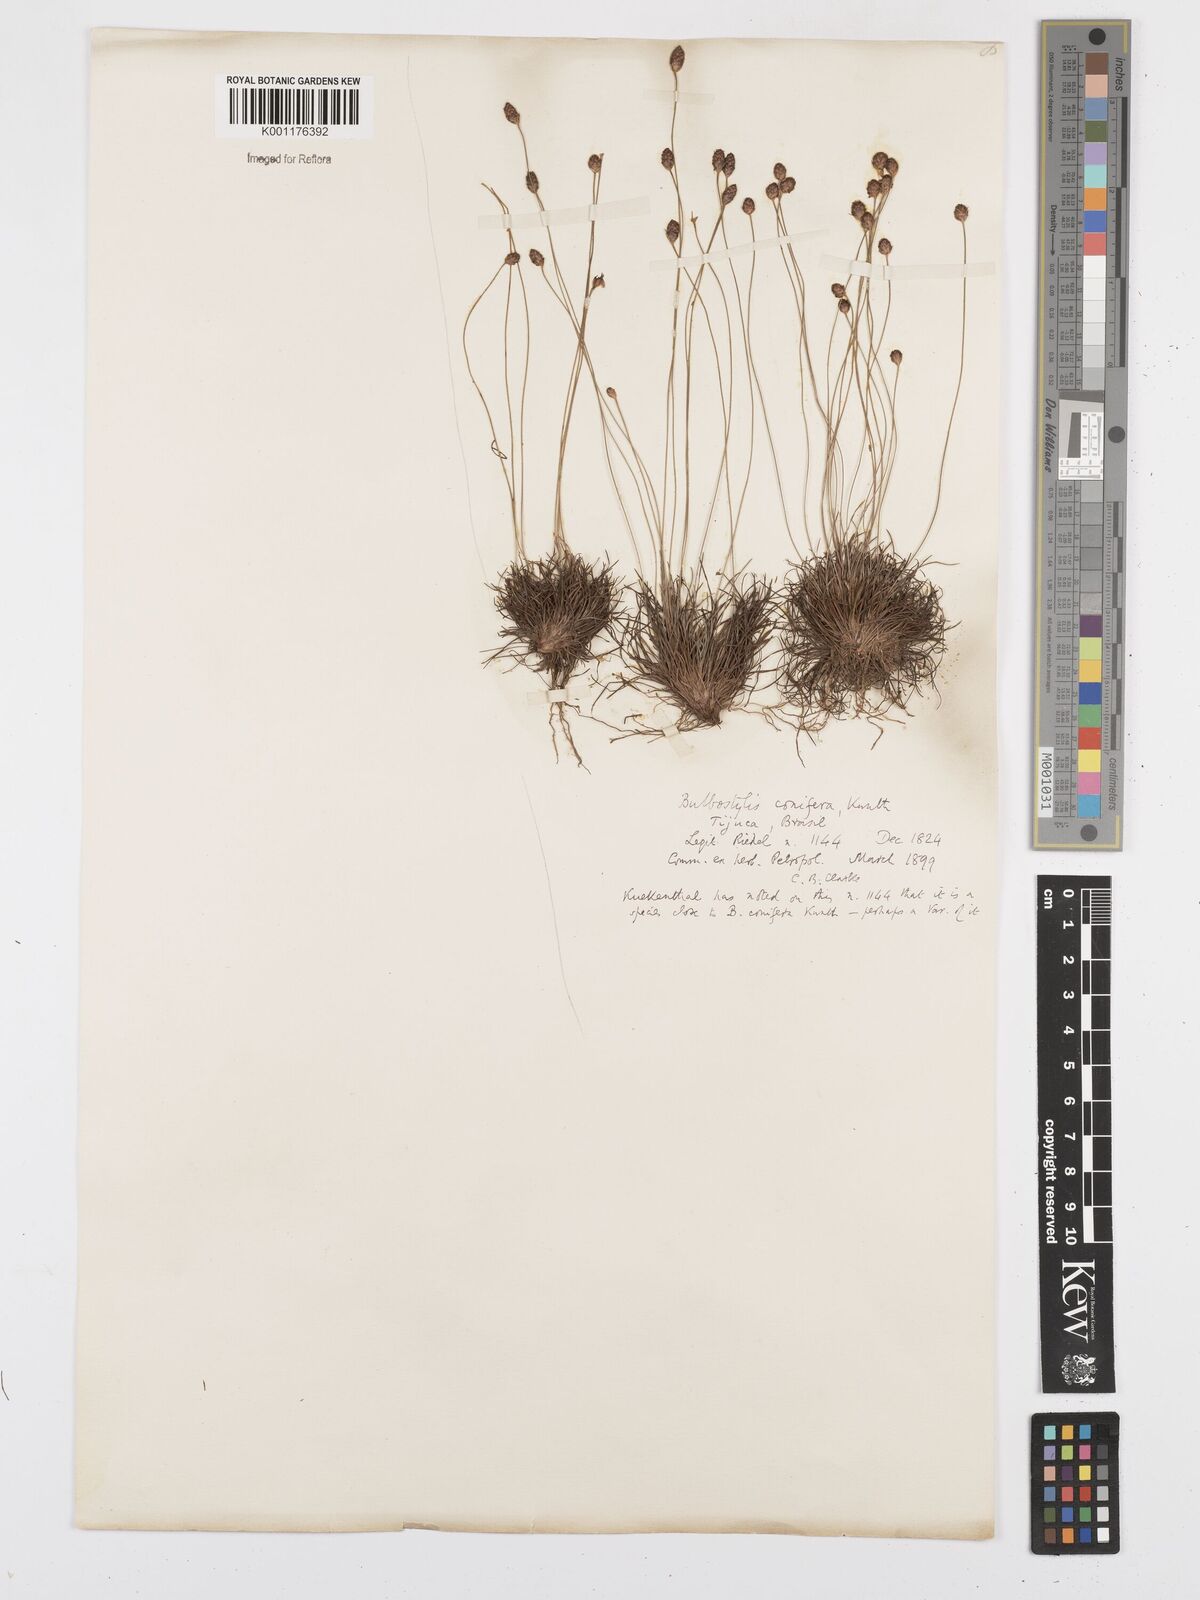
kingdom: Plantae
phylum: Tracheophyta
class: Liliopsida
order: Poales
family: Cyperaceae
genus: Bulbostylis
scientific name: Bulbostylis conifera
